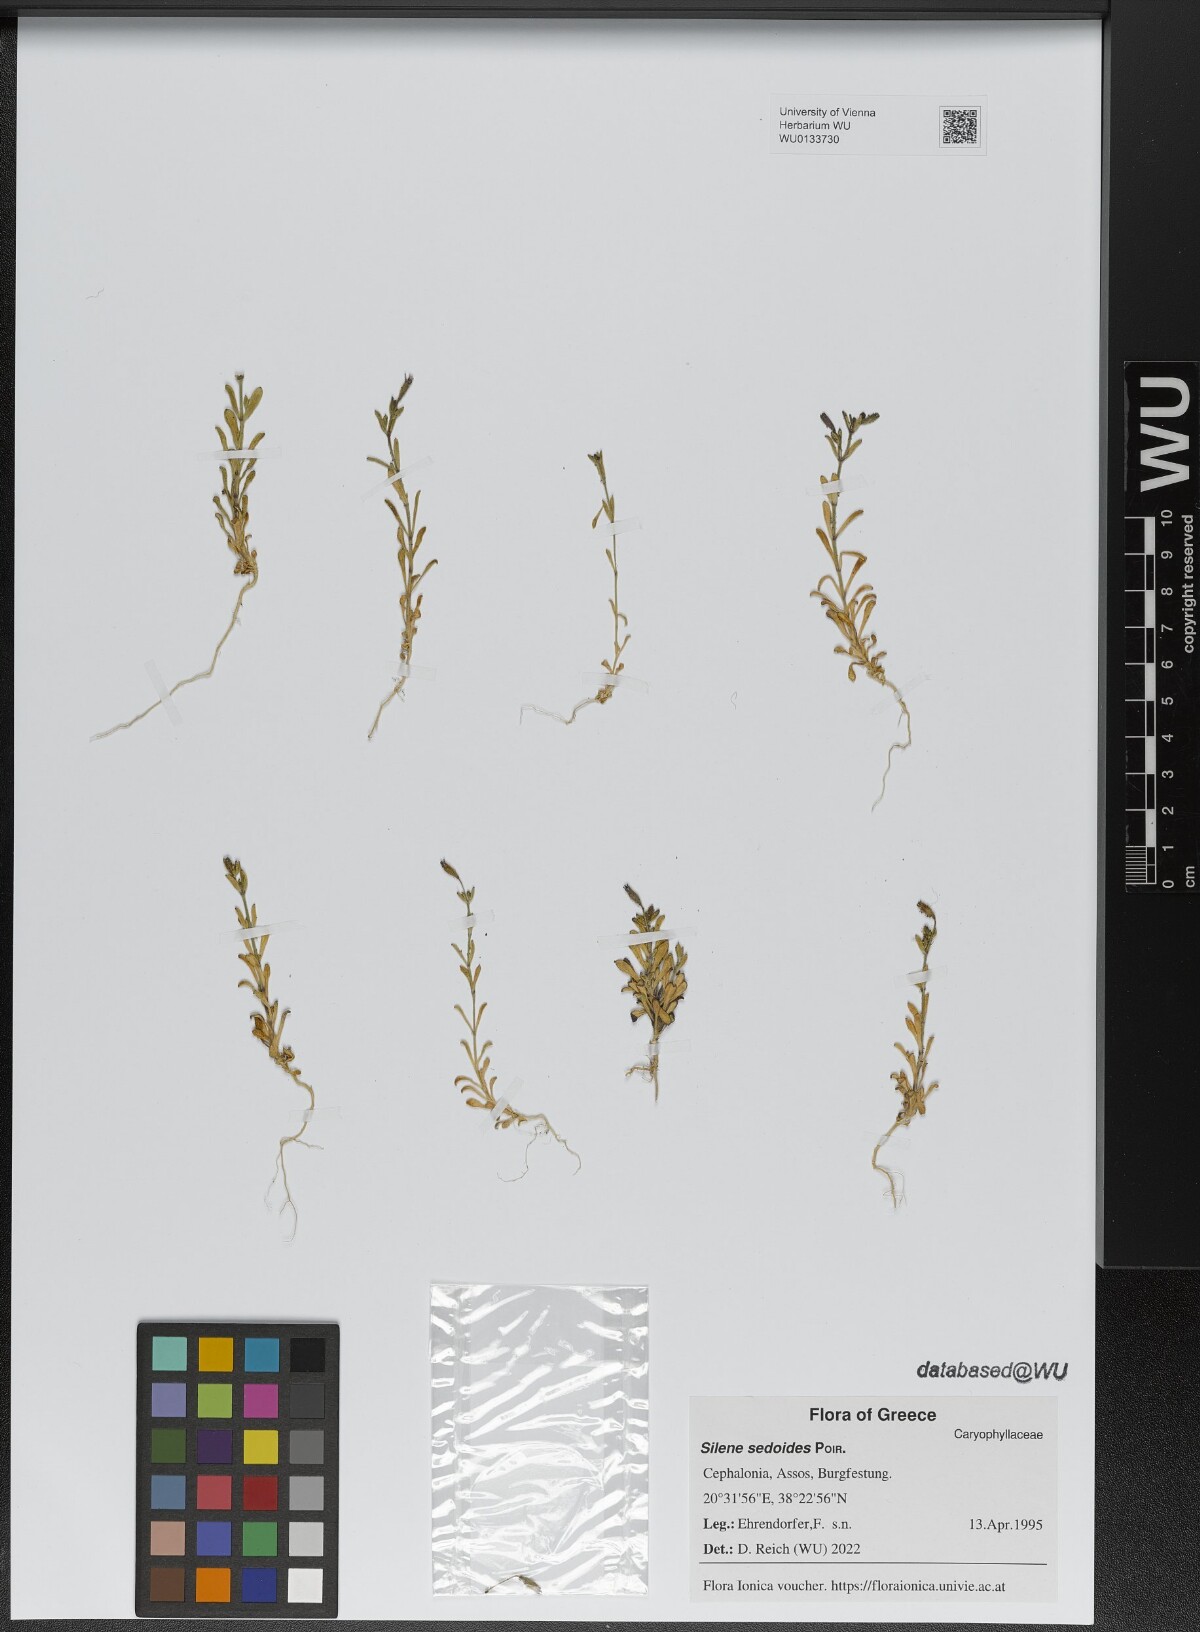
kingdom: Plantae
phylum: Tracheophyta
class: Magnoliopsida
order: Caryophyllales
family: Caryophyllaceae
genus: Silene
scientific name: Silene sedoides
